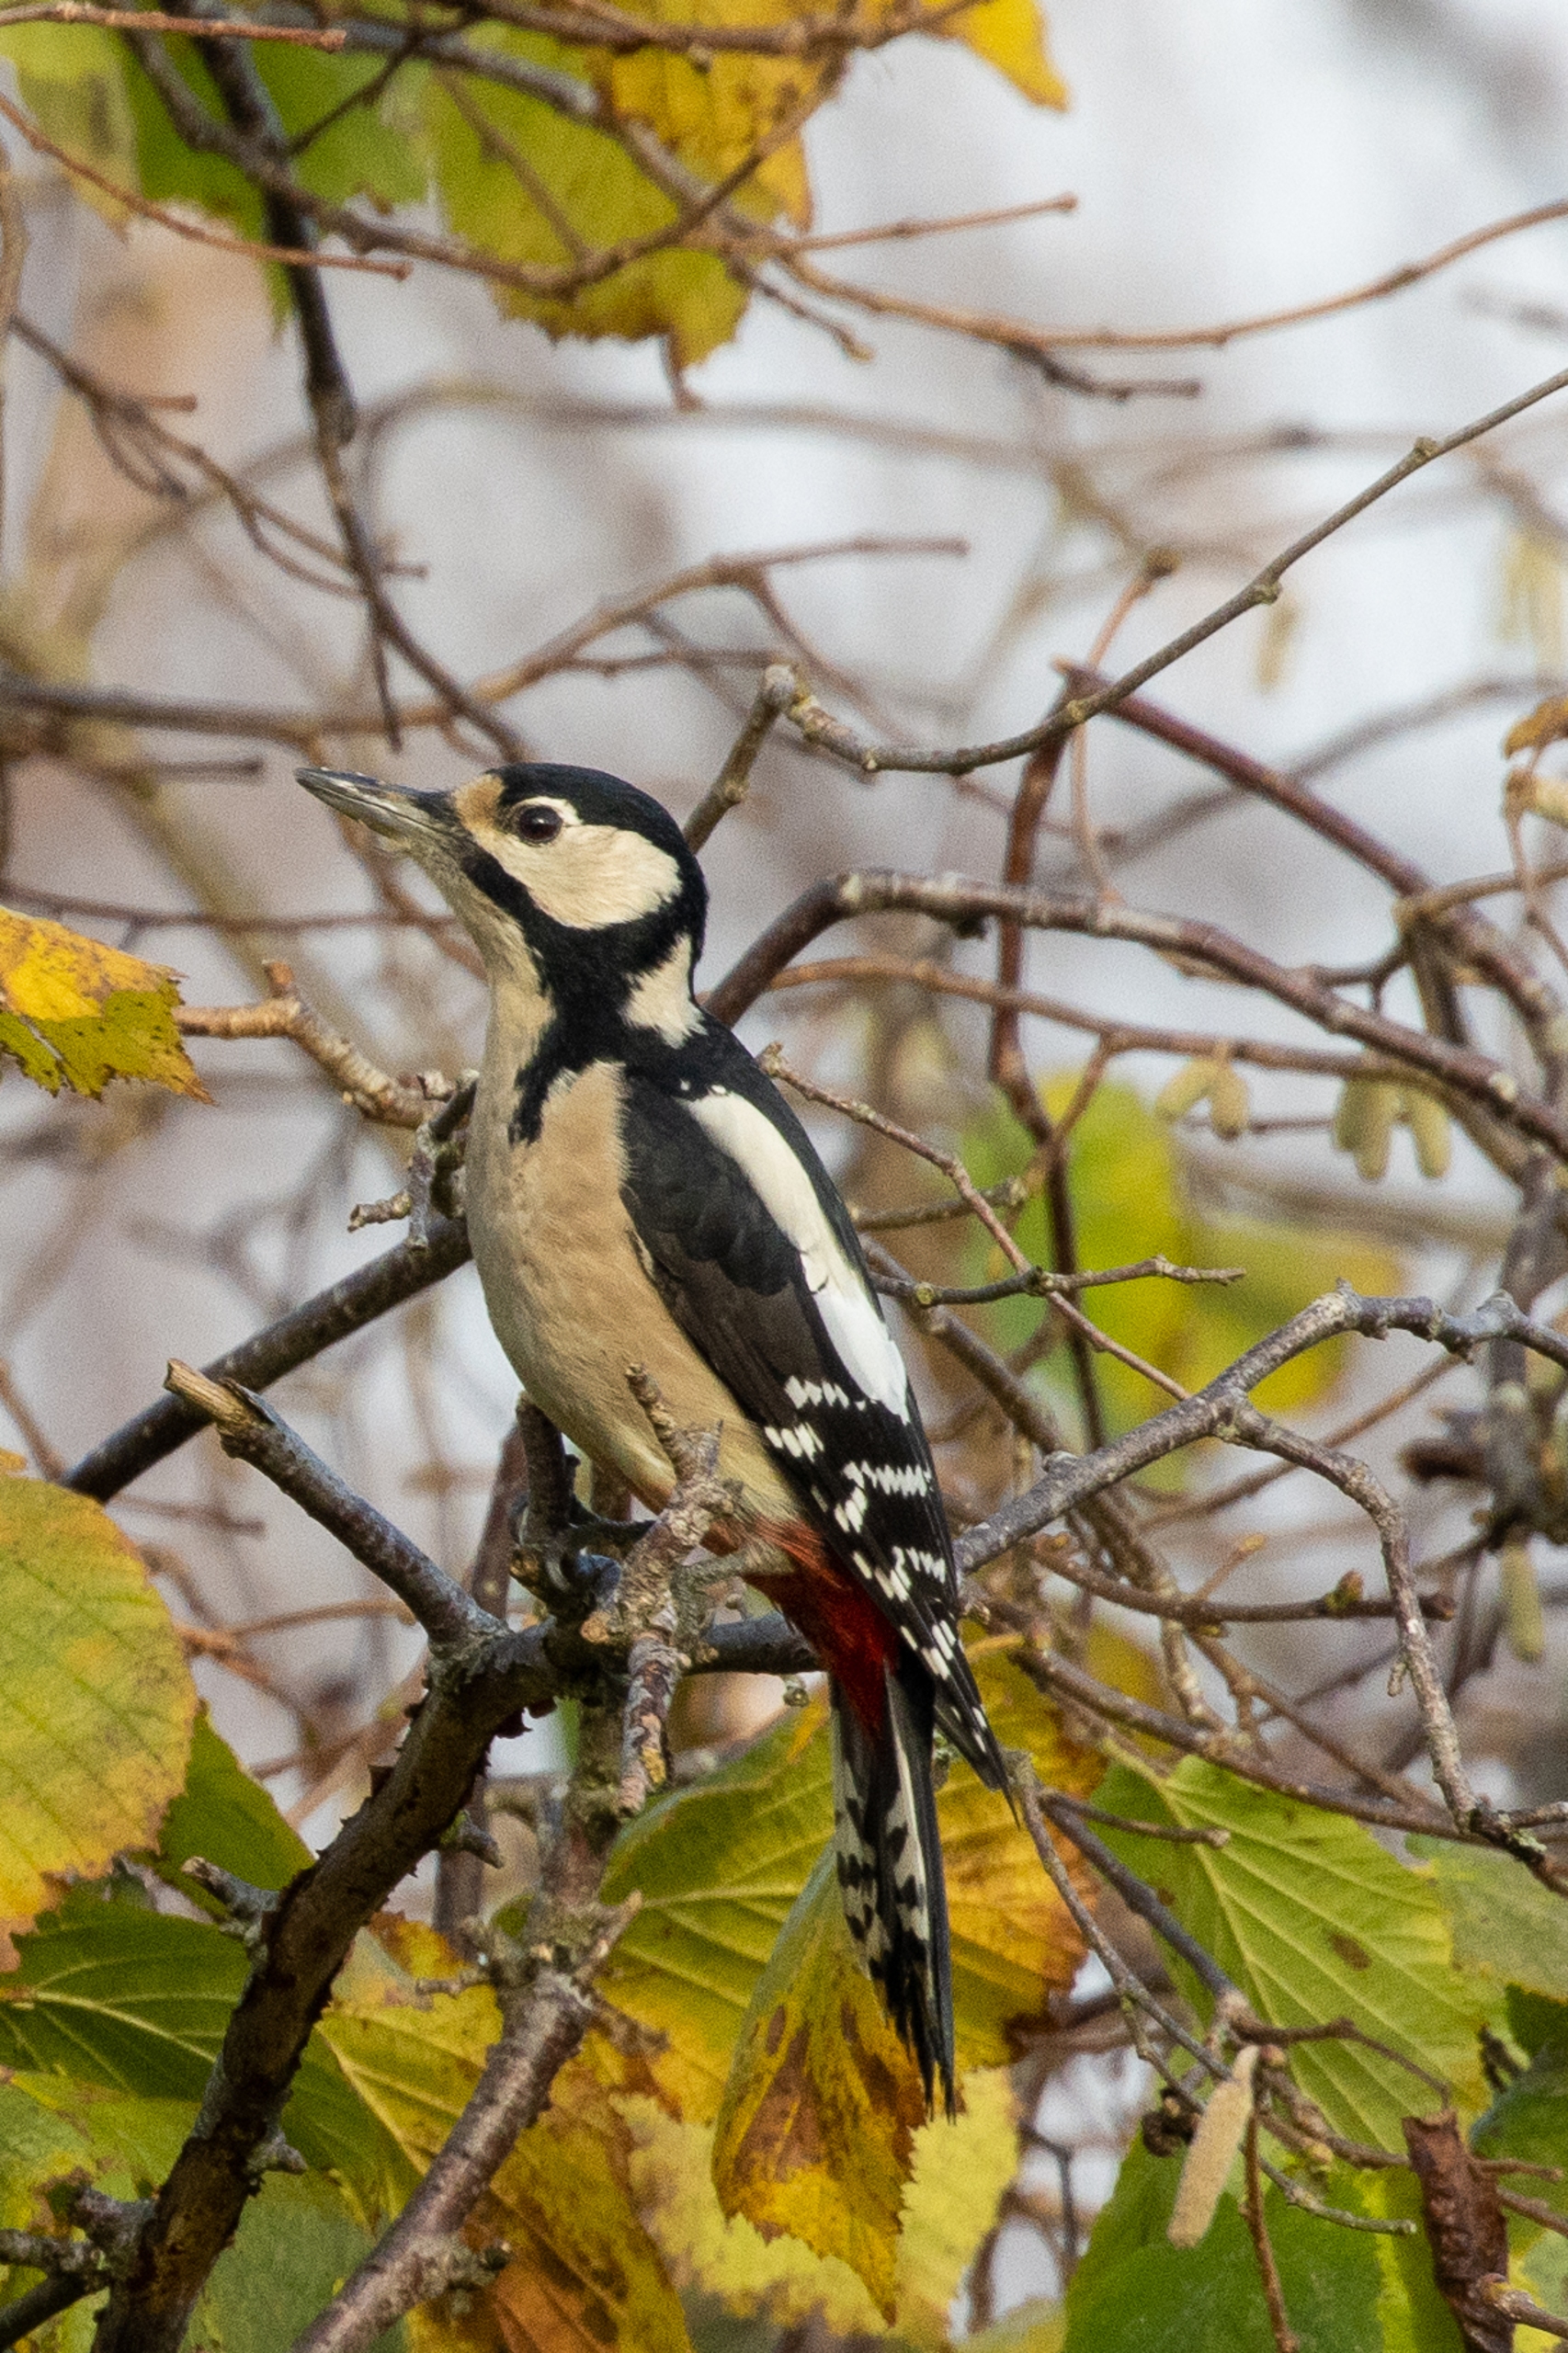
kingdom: Animalia
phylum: Chordata
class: Aves
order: Piciformes
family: Picidae
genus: Dendrocopos
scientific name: Dendrocopos major
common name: Stor flagspætte
